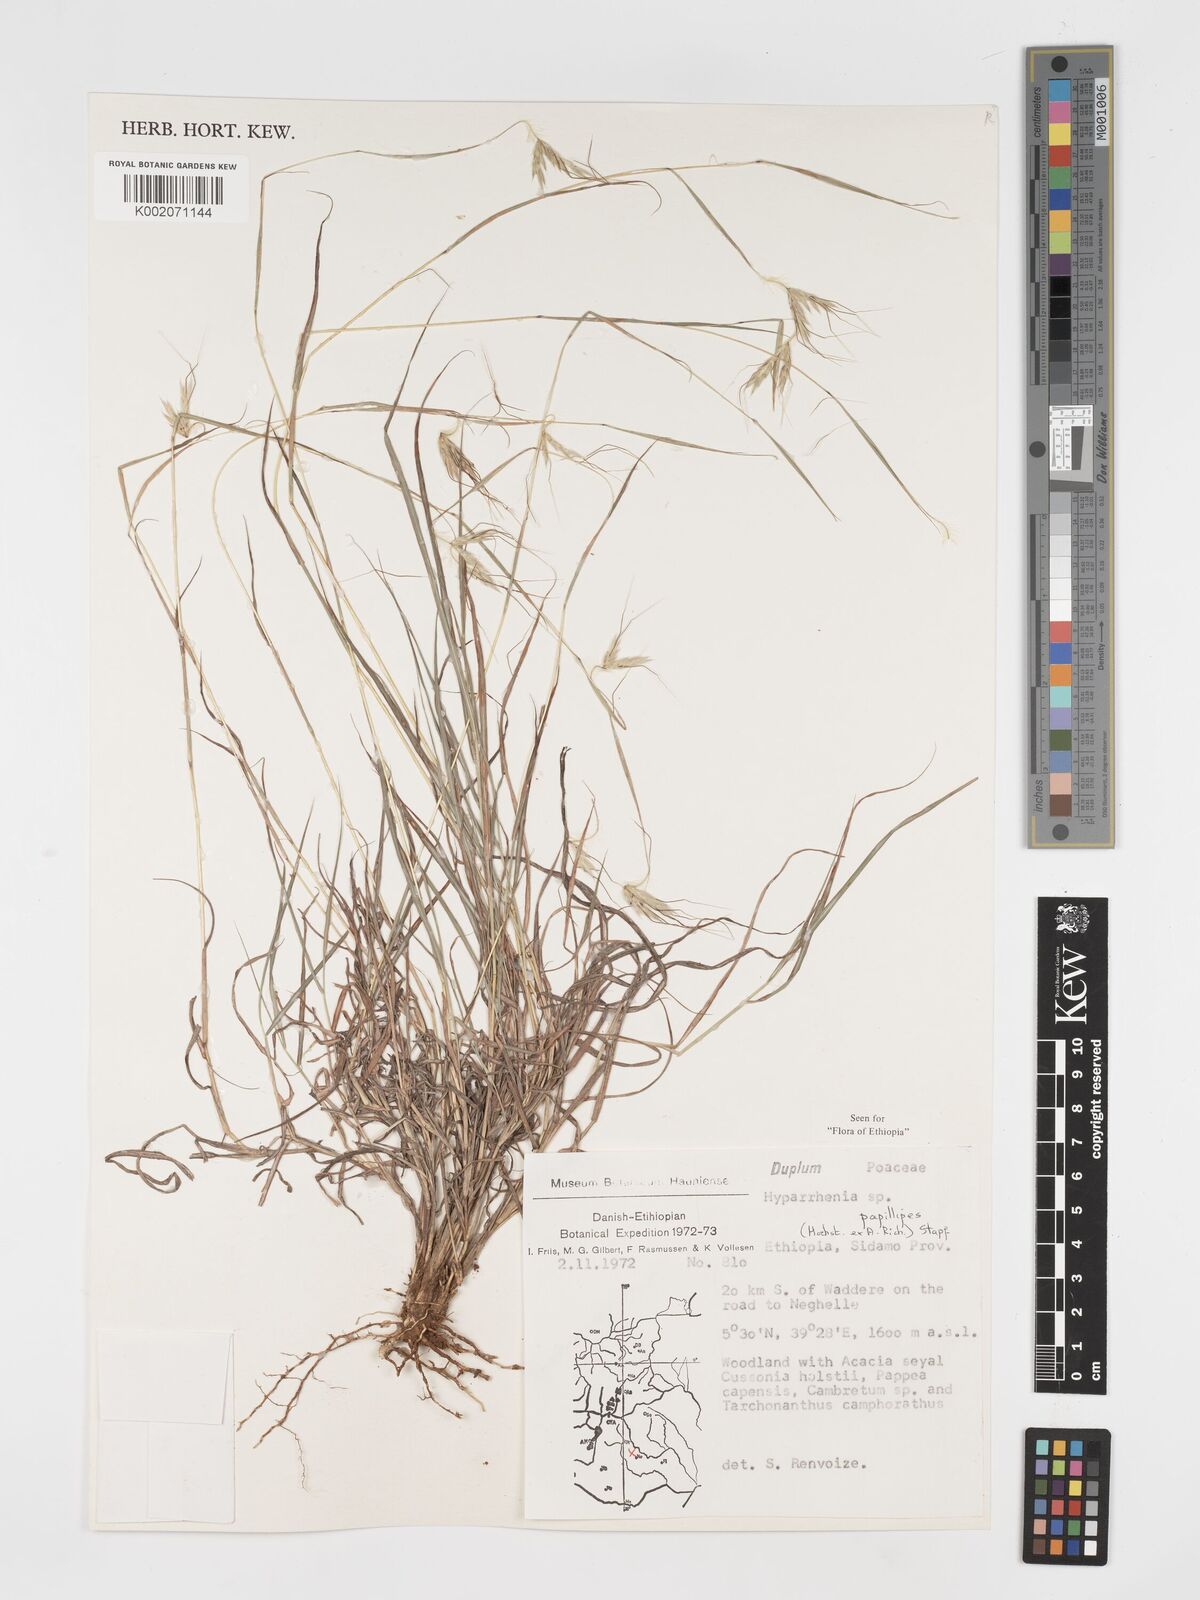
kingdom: Plantae
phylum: Tracheophyta
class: Liliopsida
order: Poales
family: Poaceae
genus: Hyparrhenia
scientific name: Hyparrhenia papillipes
